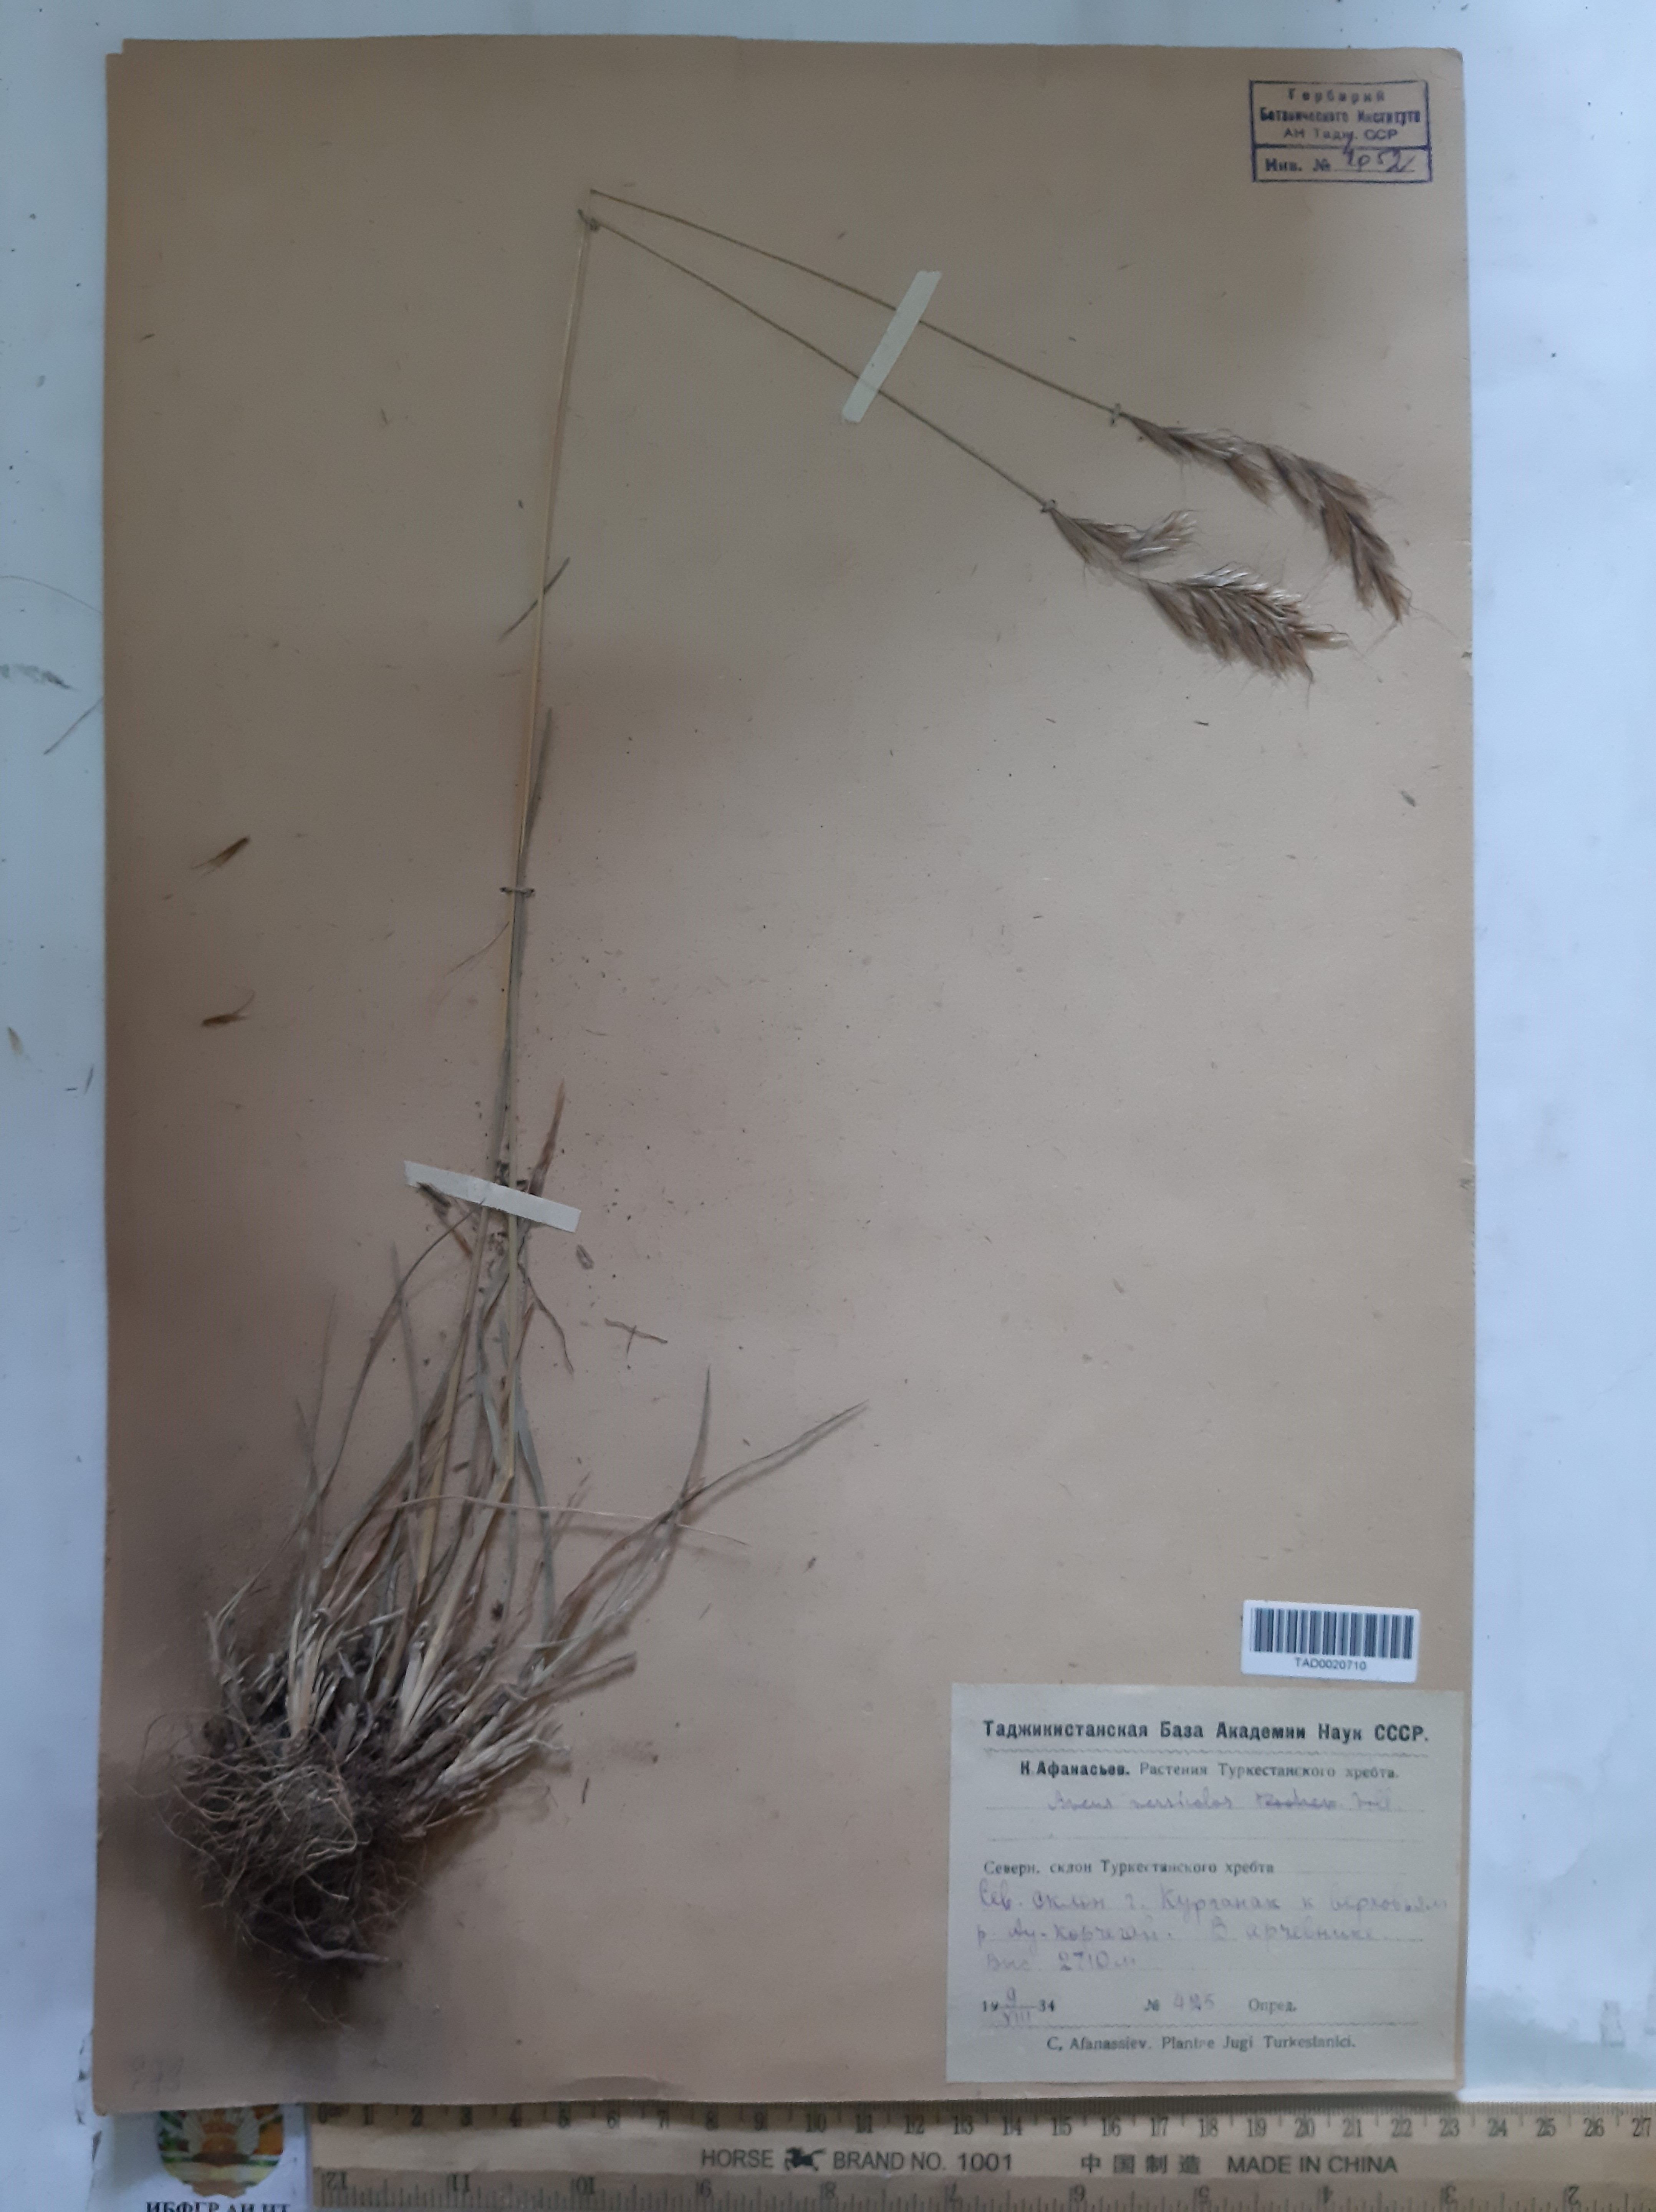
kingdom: Plantae
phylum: Tracheophyta
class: Liliopsida
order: Poales
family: Poaceae
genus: Avena
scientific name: Avena
